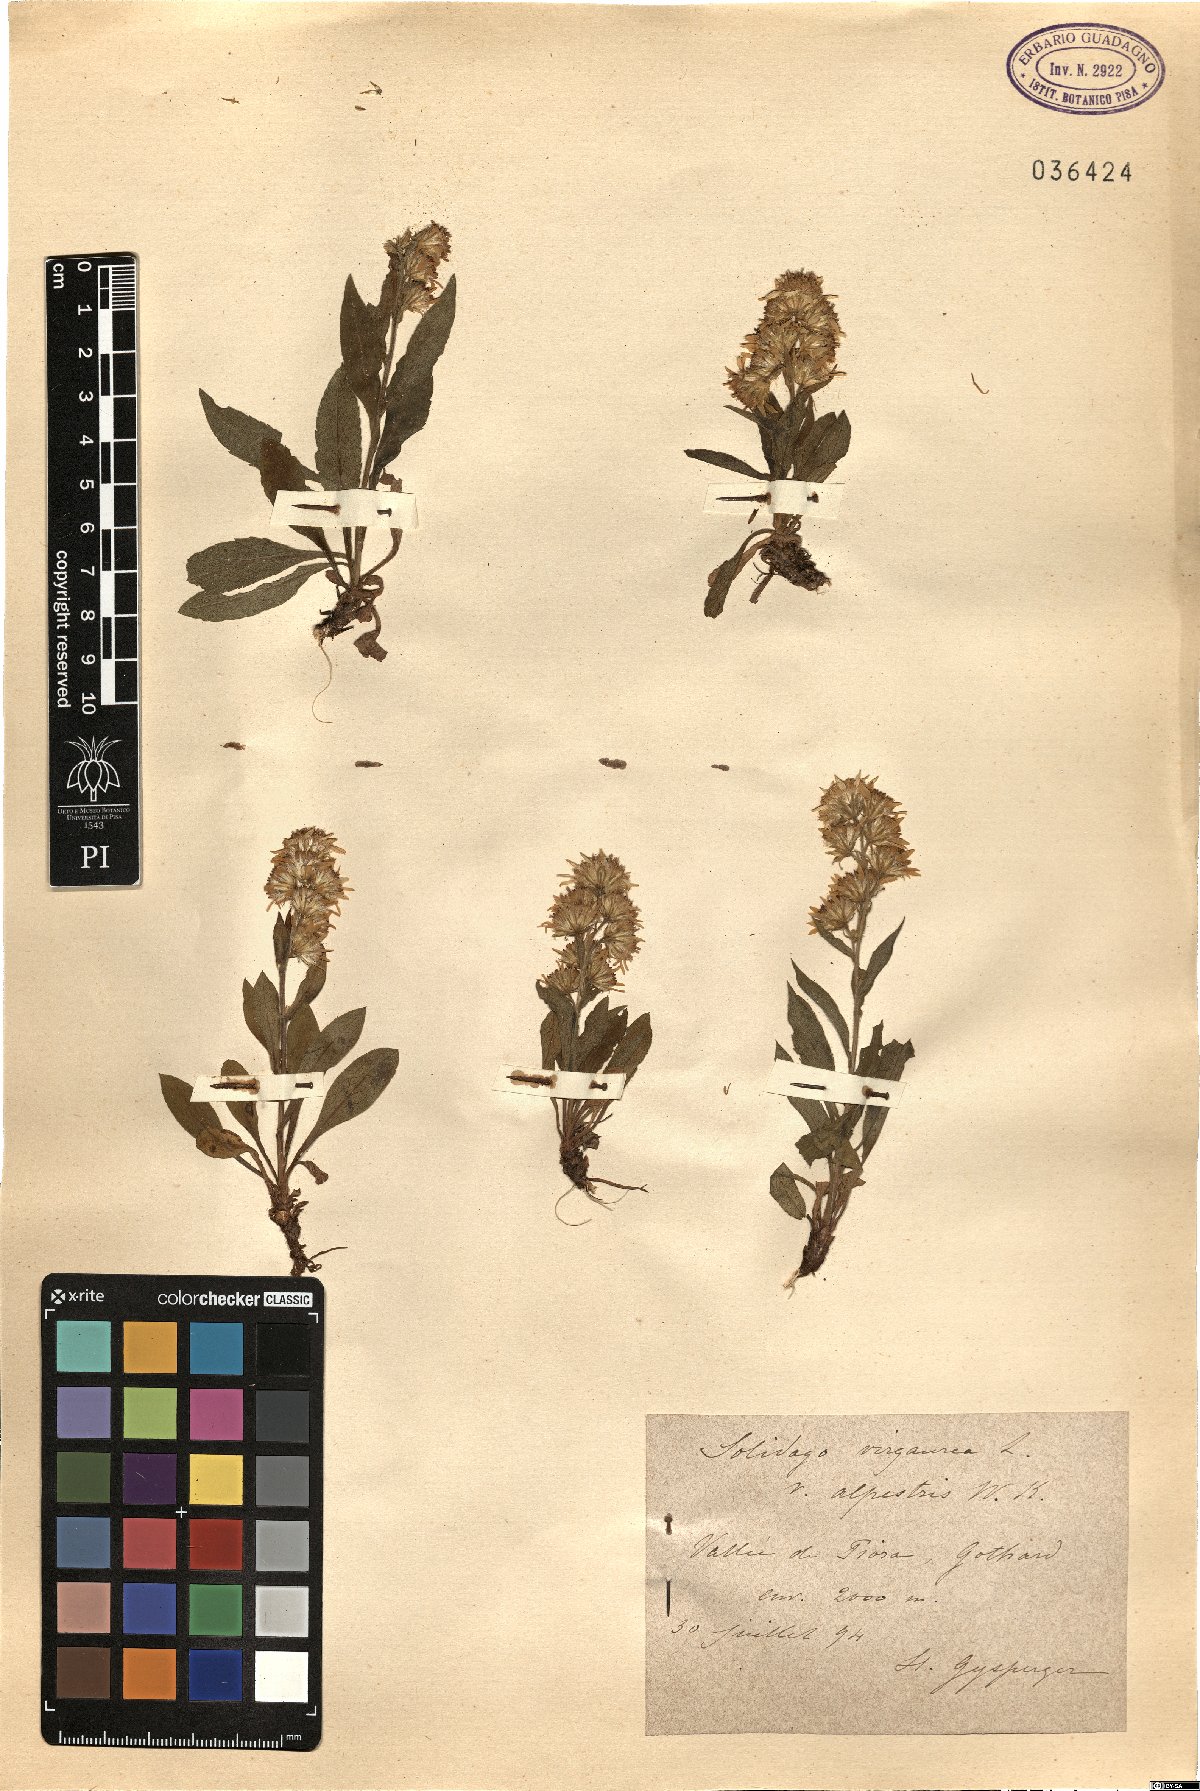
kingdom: Plantae
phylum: Tracheophyta
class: Magnoliopsida
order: Asterales
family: Asteraceae
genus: Solidago
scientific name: Solidago virgaurea
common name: Goldenrod
